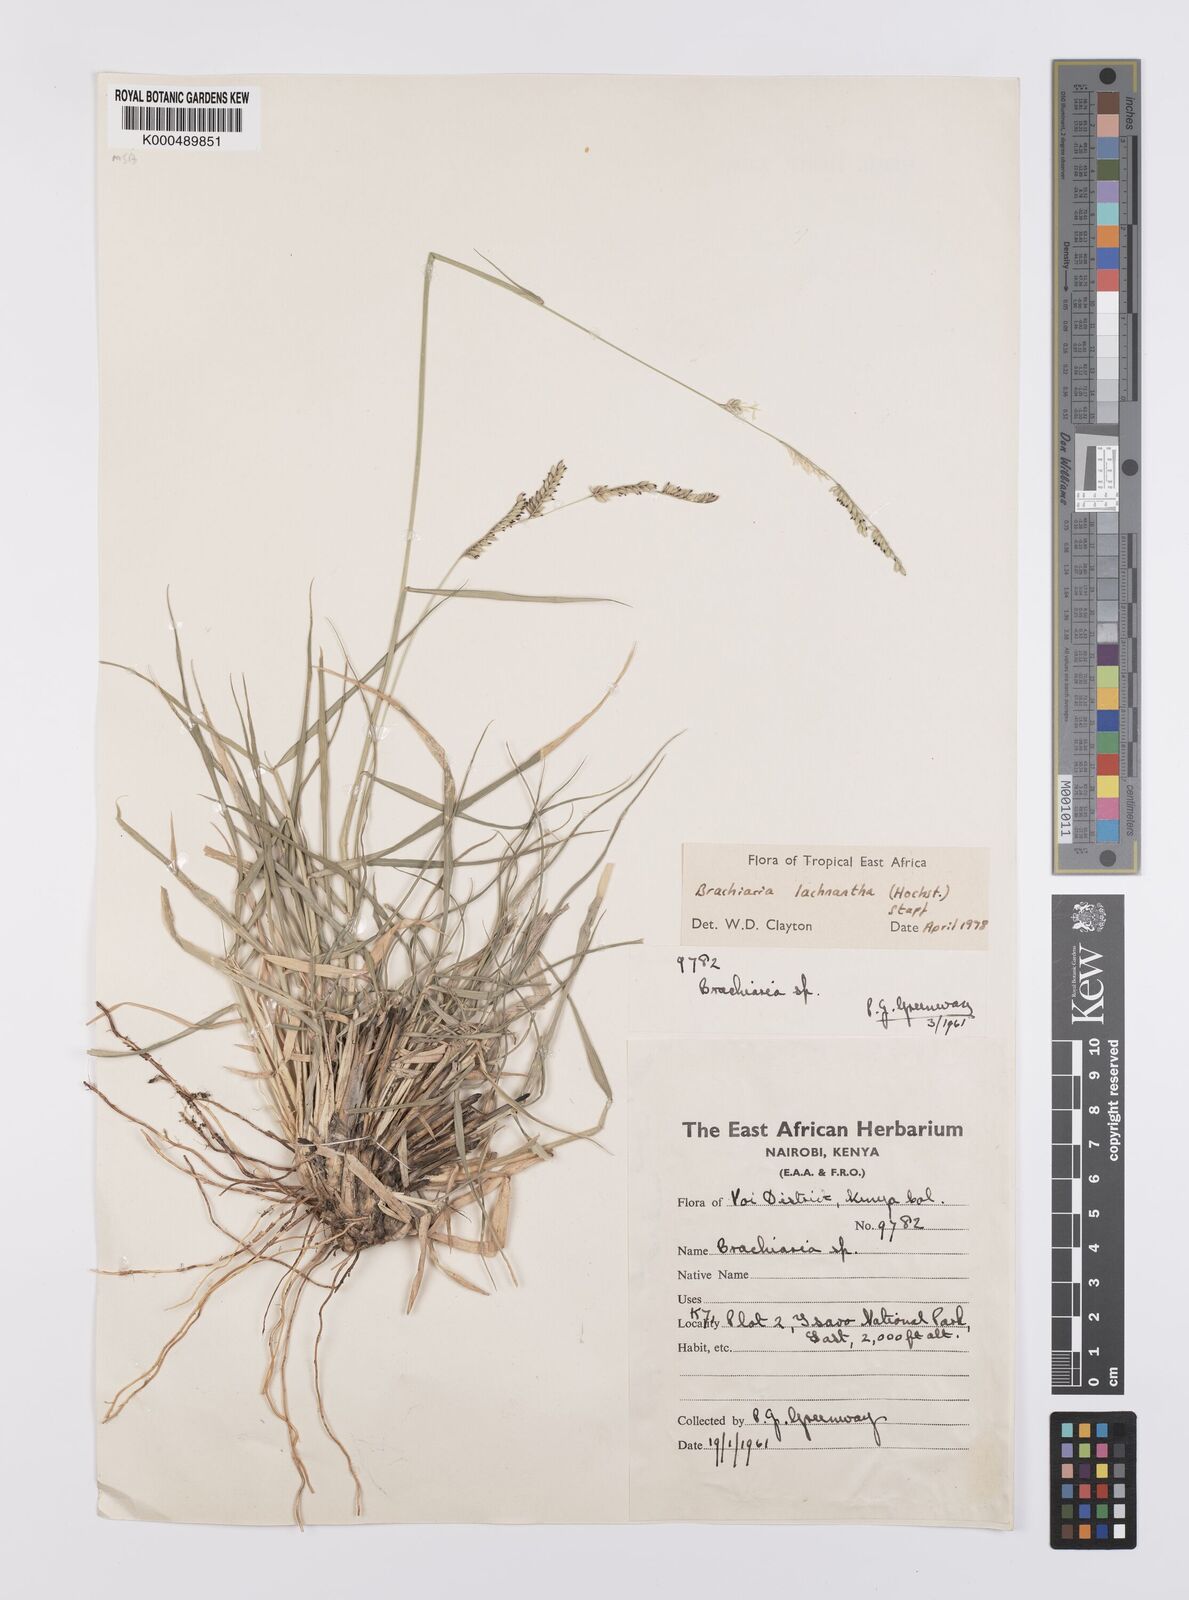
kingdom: Plantae
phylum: Tracheophyta
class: Liliopsida
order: Poales
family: Poaceae
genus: Urochloa
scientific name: Urochloa lachnantha
